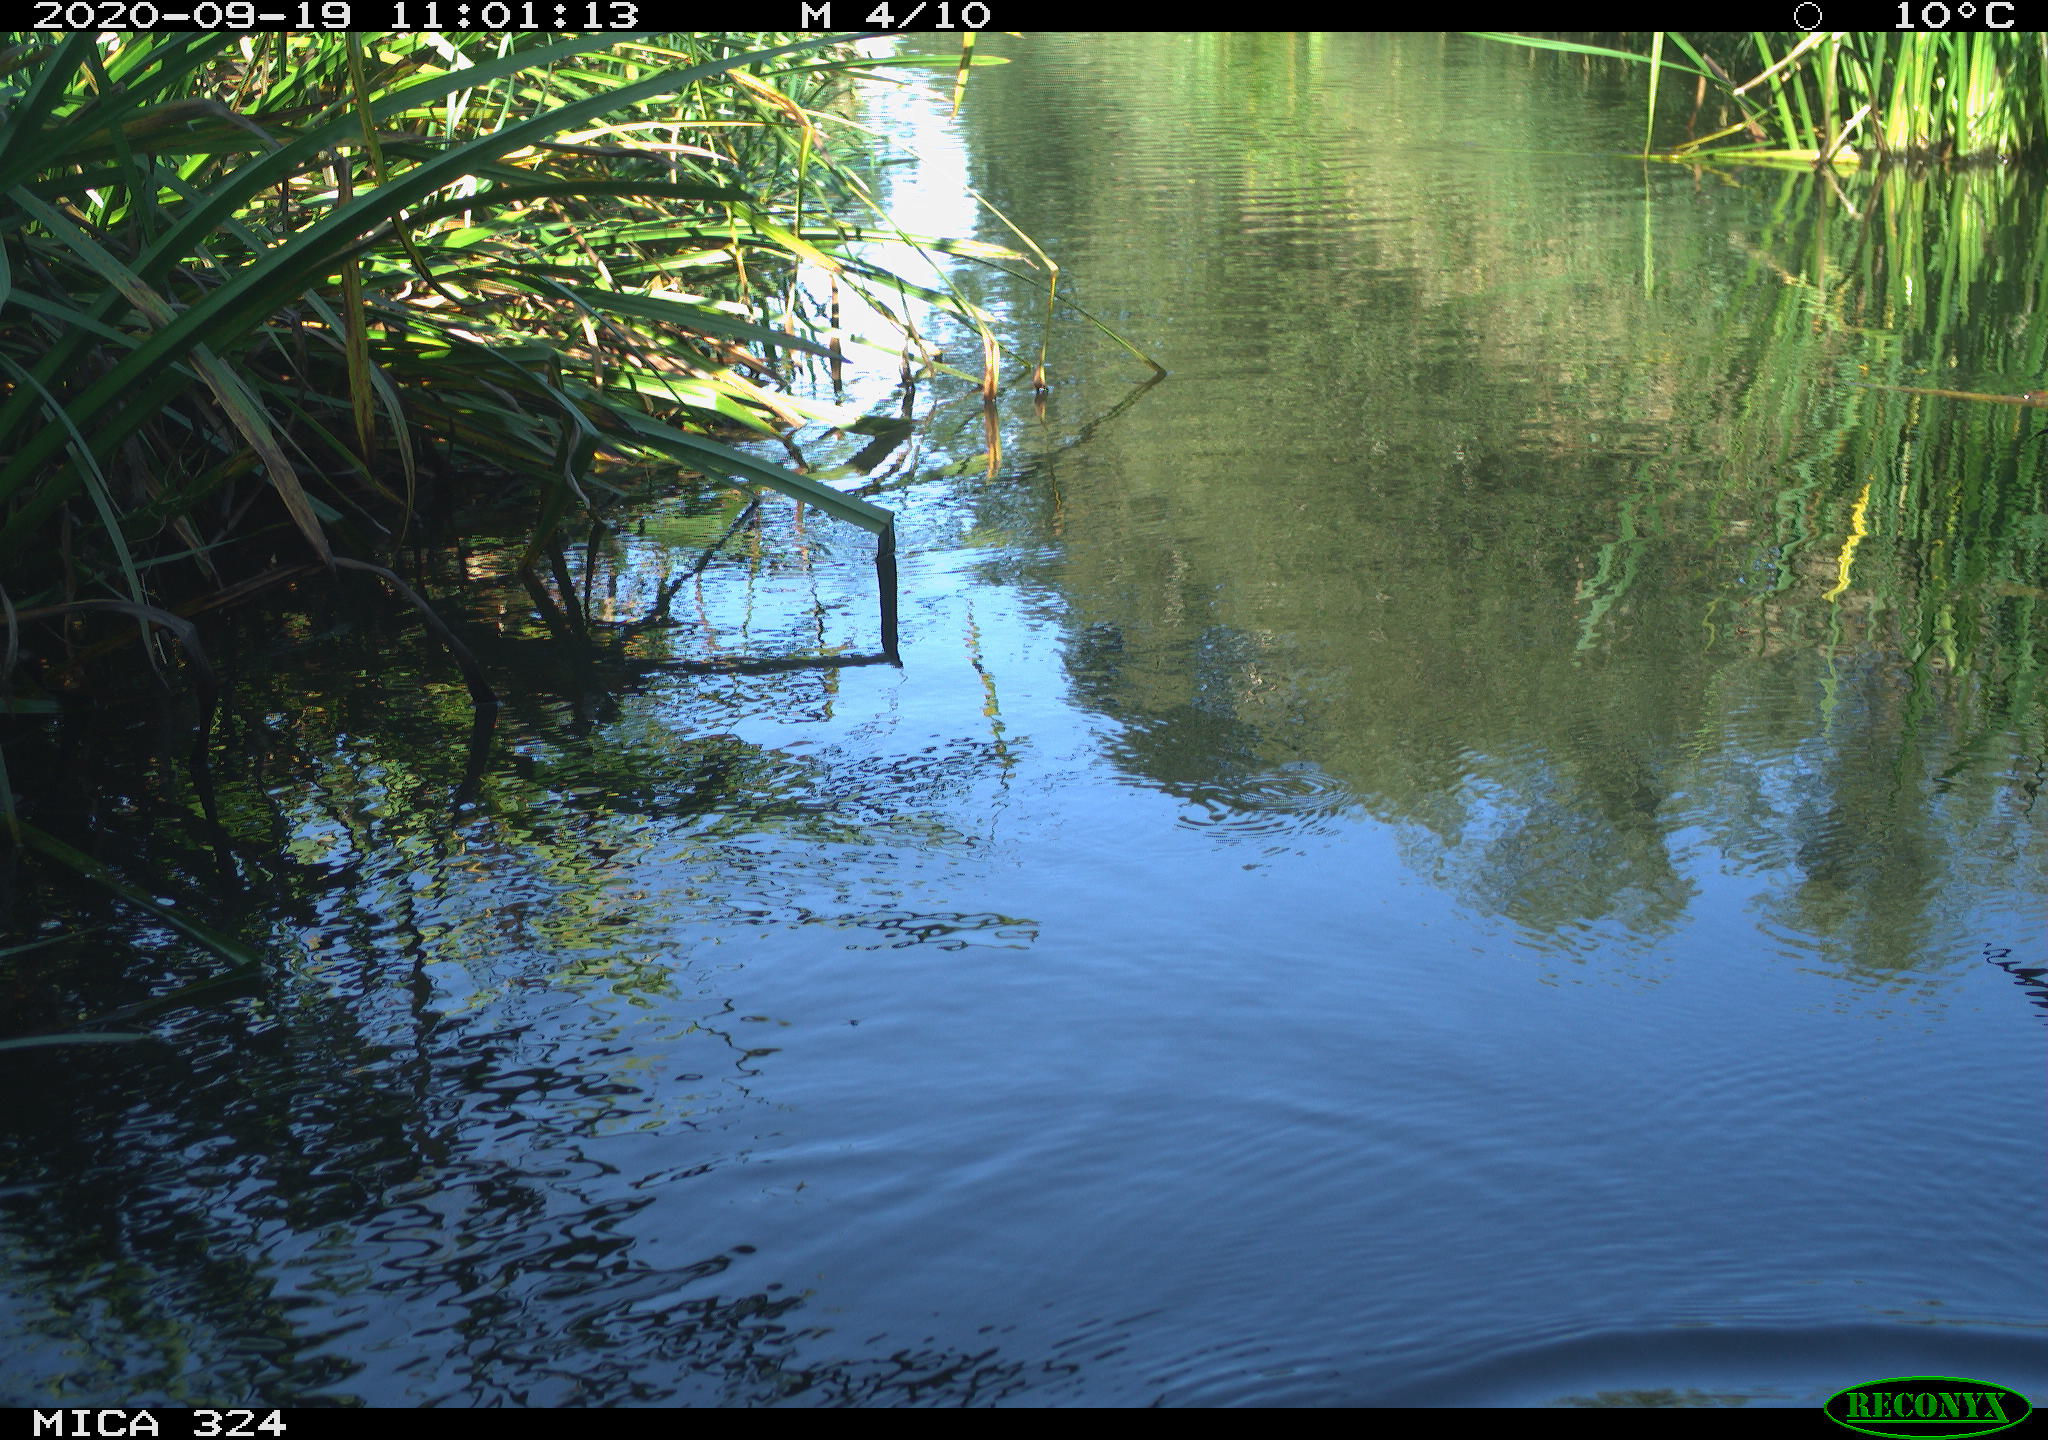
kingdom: Animalia
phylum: Chordata
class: Aves
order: Gruiformes
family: Rallidae
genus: Gallinula
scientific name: Gallinula chloropus
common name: Common moorhen
